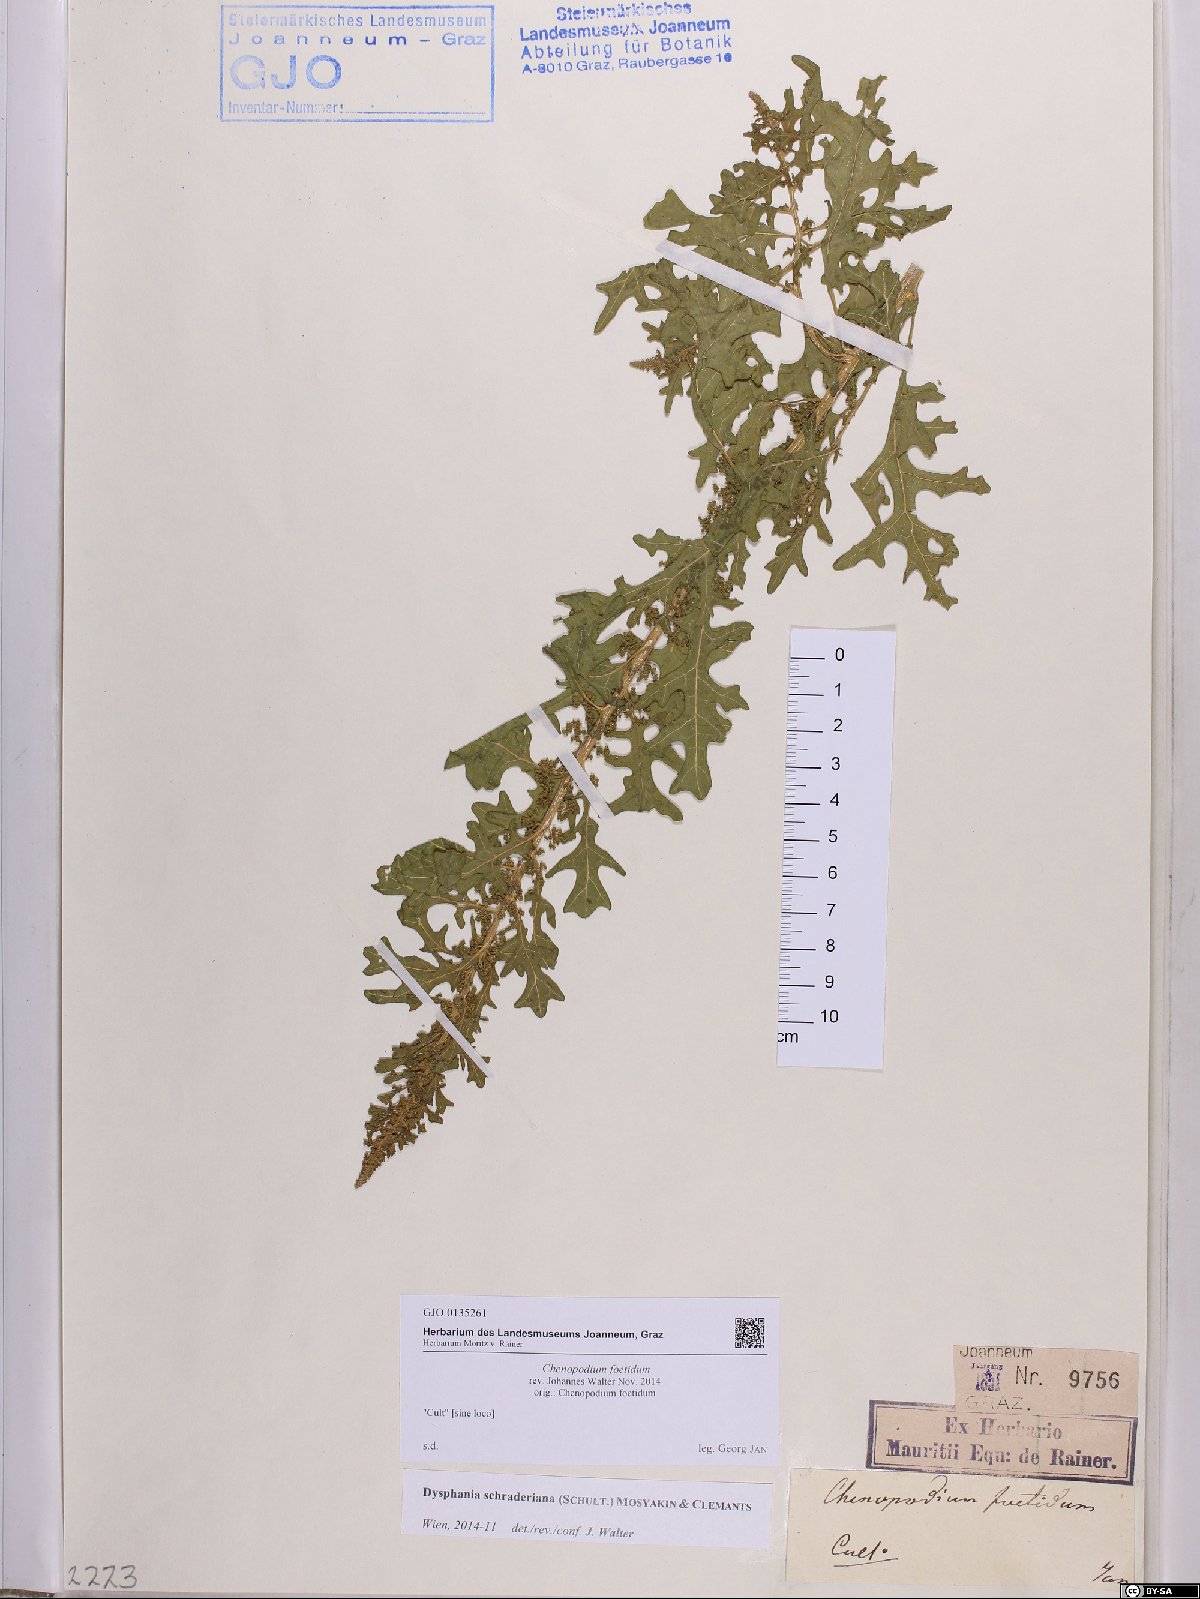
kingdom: Plantae
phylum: Tracheophyta
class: Magnoliopsida
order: Caryophyllales
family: Amaranthaceae
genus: Dysphania
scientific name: Dysphania schraderiana
